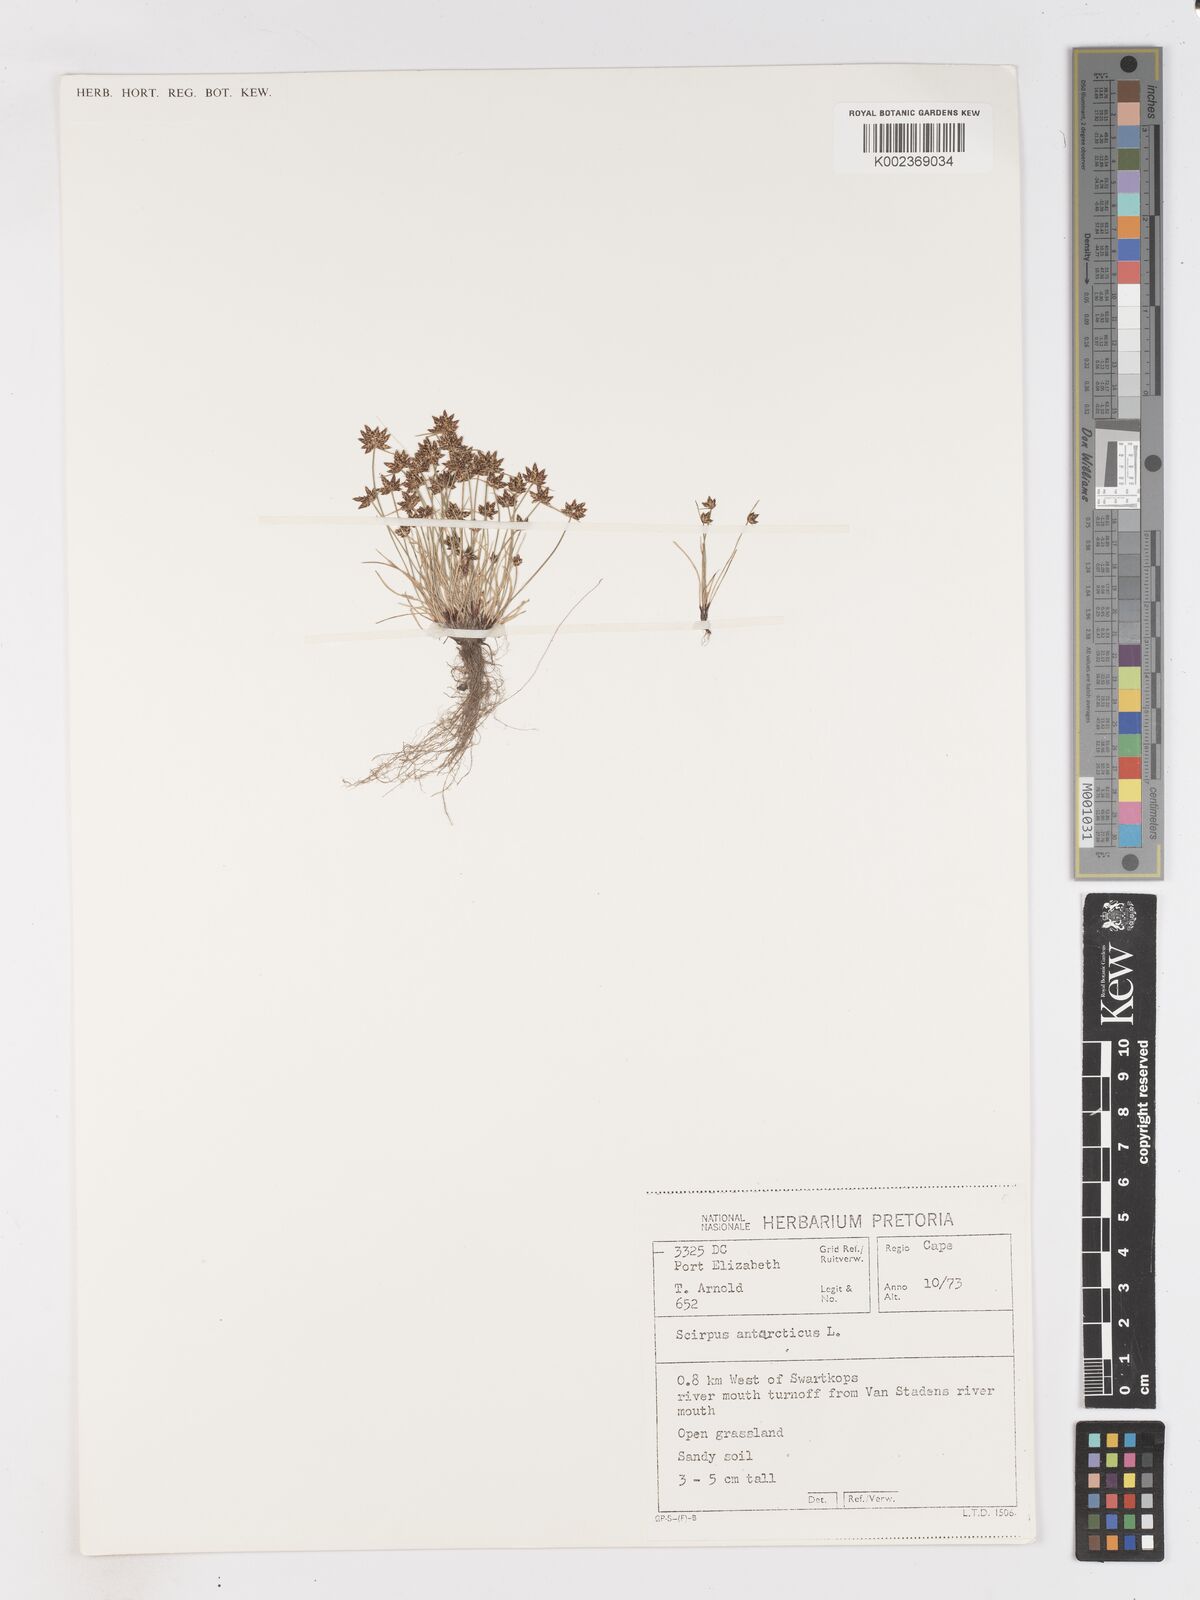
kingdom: Plantae
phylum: Tracheophyta
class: Liliopsida
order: Poales
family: Cyperaceae
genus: Isolepis
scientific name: Isolepis diabolica
